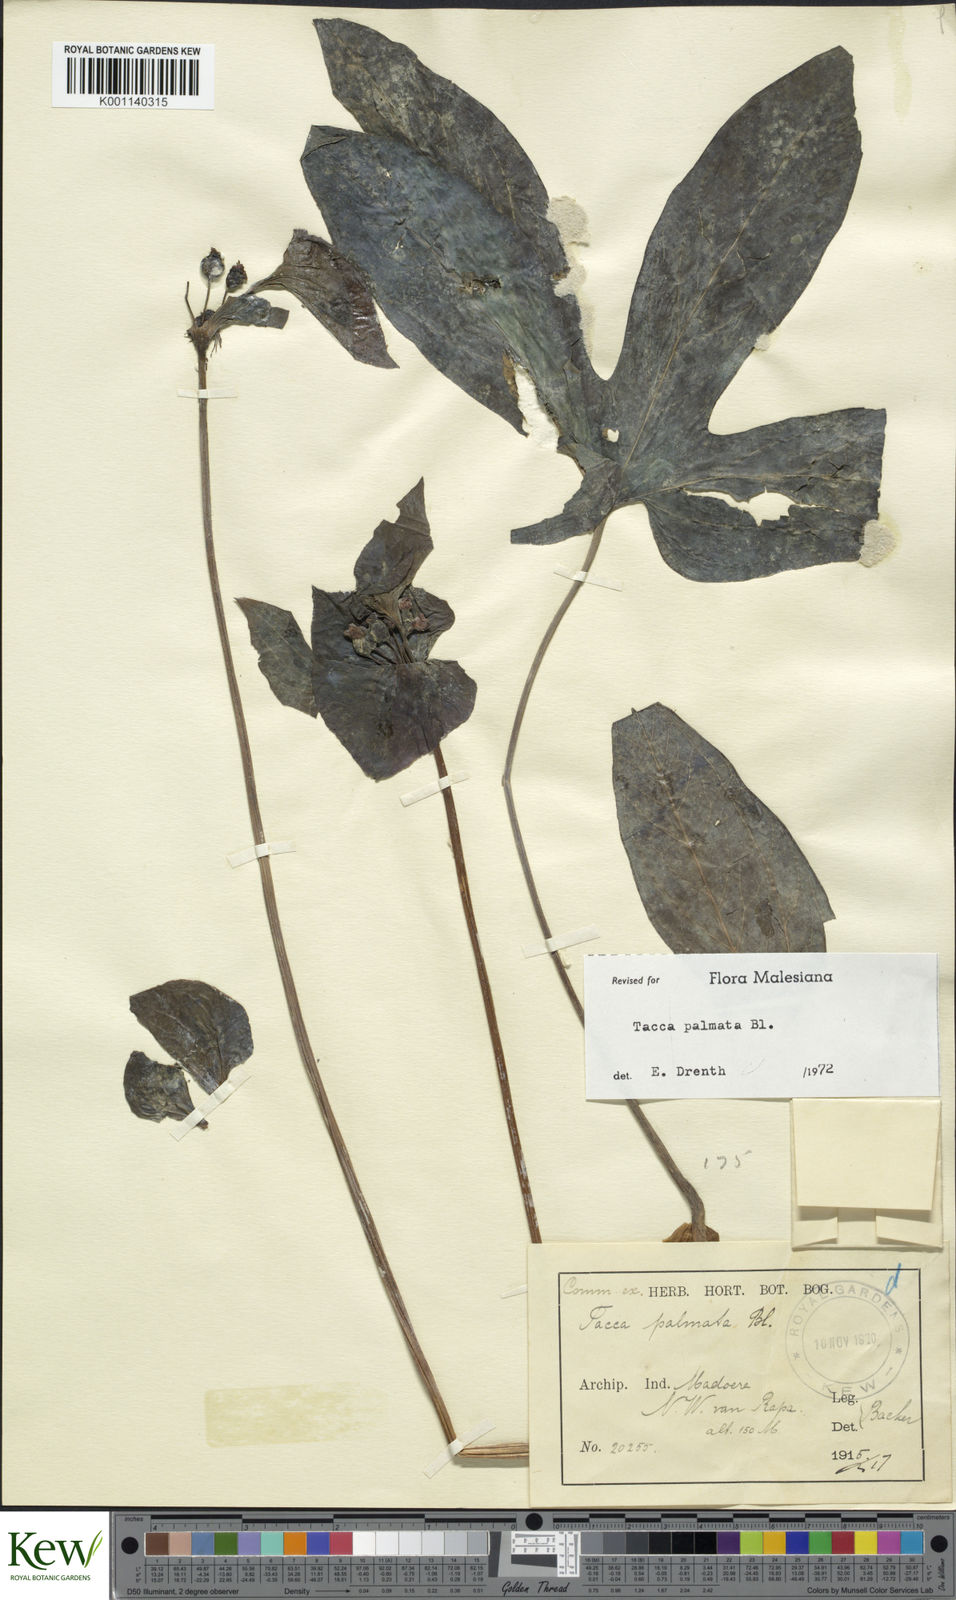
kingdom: Plantae
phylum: Tracheophyta
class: Liliopsida
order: Dioscoreales
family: Dioscoreaceae
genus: Tacca
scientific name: Tacca palmata
